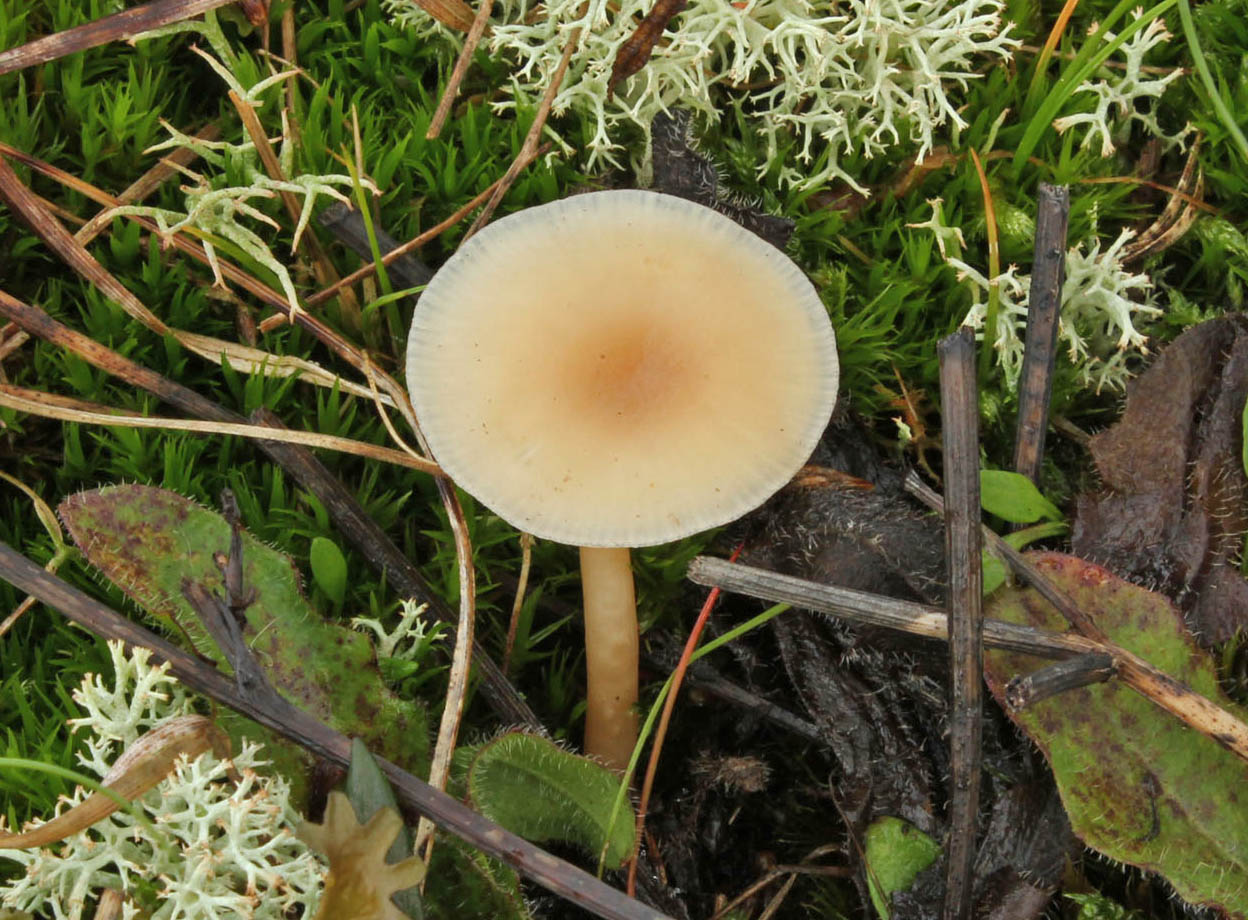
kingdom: Fungi
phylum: Basidiomycota
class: Agaricomycetes
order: Agaricales
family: Tricholomataceae
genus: Clitocybe
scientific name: Clitocybe leucodiatreta
